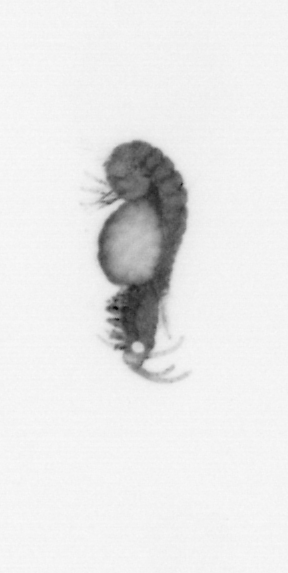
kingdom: Animalia
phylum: Annelida
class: Polychaeta
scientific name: Polychaeta
